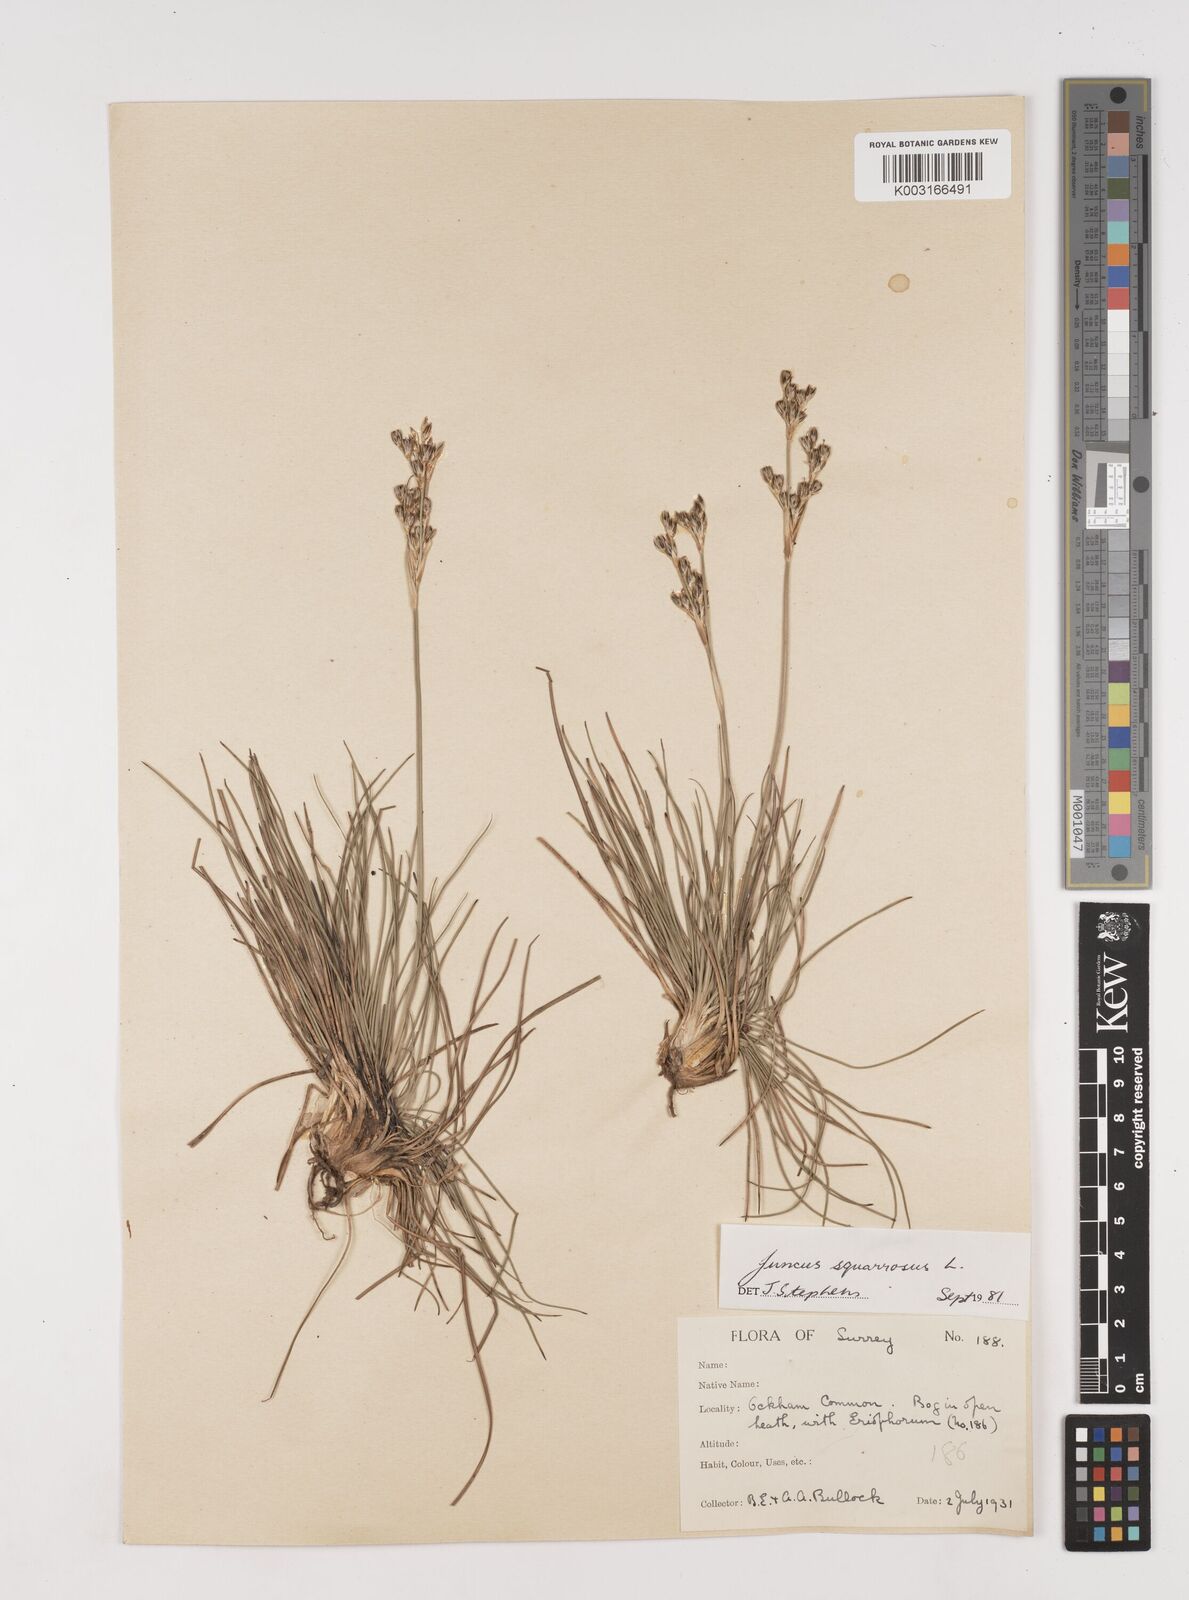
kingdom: Plantae
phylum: Tracheophyta
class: Liliopsida
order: Poales
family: Juncaceae
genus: Juncus
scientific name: Juncus squarrosus
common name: Heath rush
